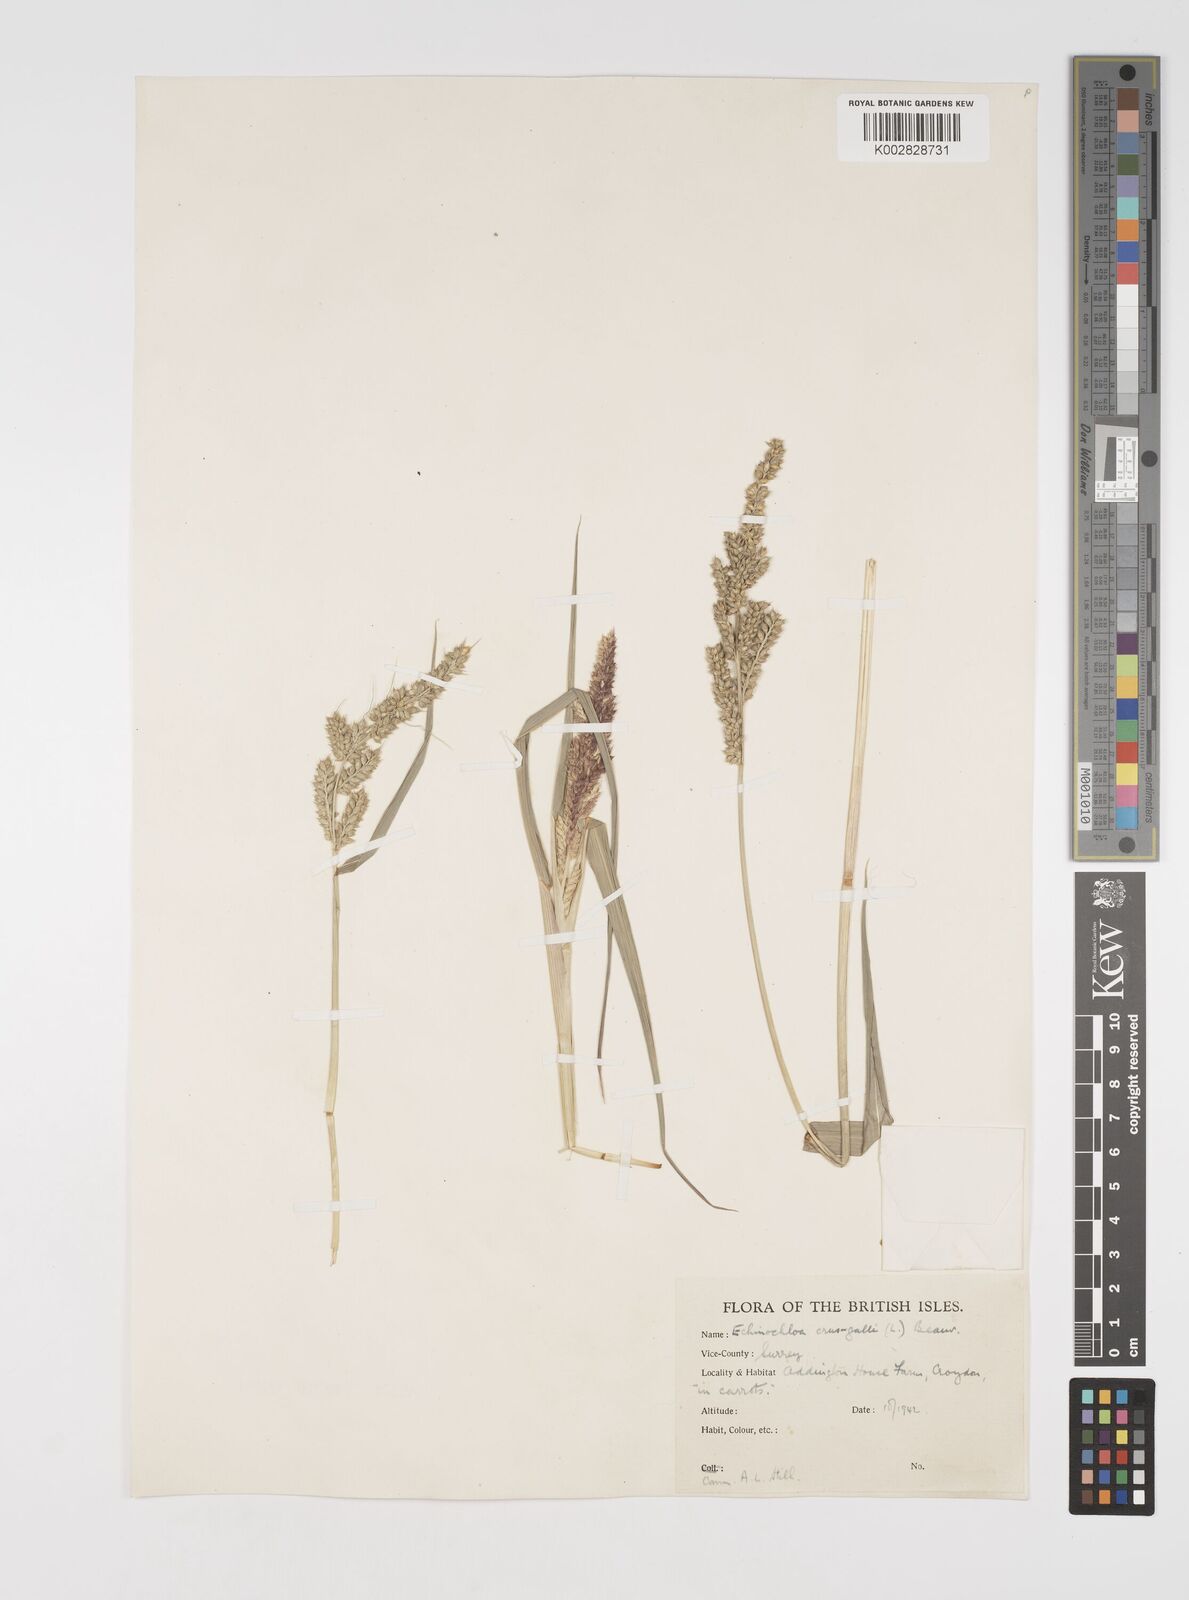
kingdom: Plantae
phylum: Tracheophyta
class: Liliopsida
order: Poales
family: Poaceae
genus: Echinochloa
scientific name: Echinochloa crus-galli
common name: Cockspur
